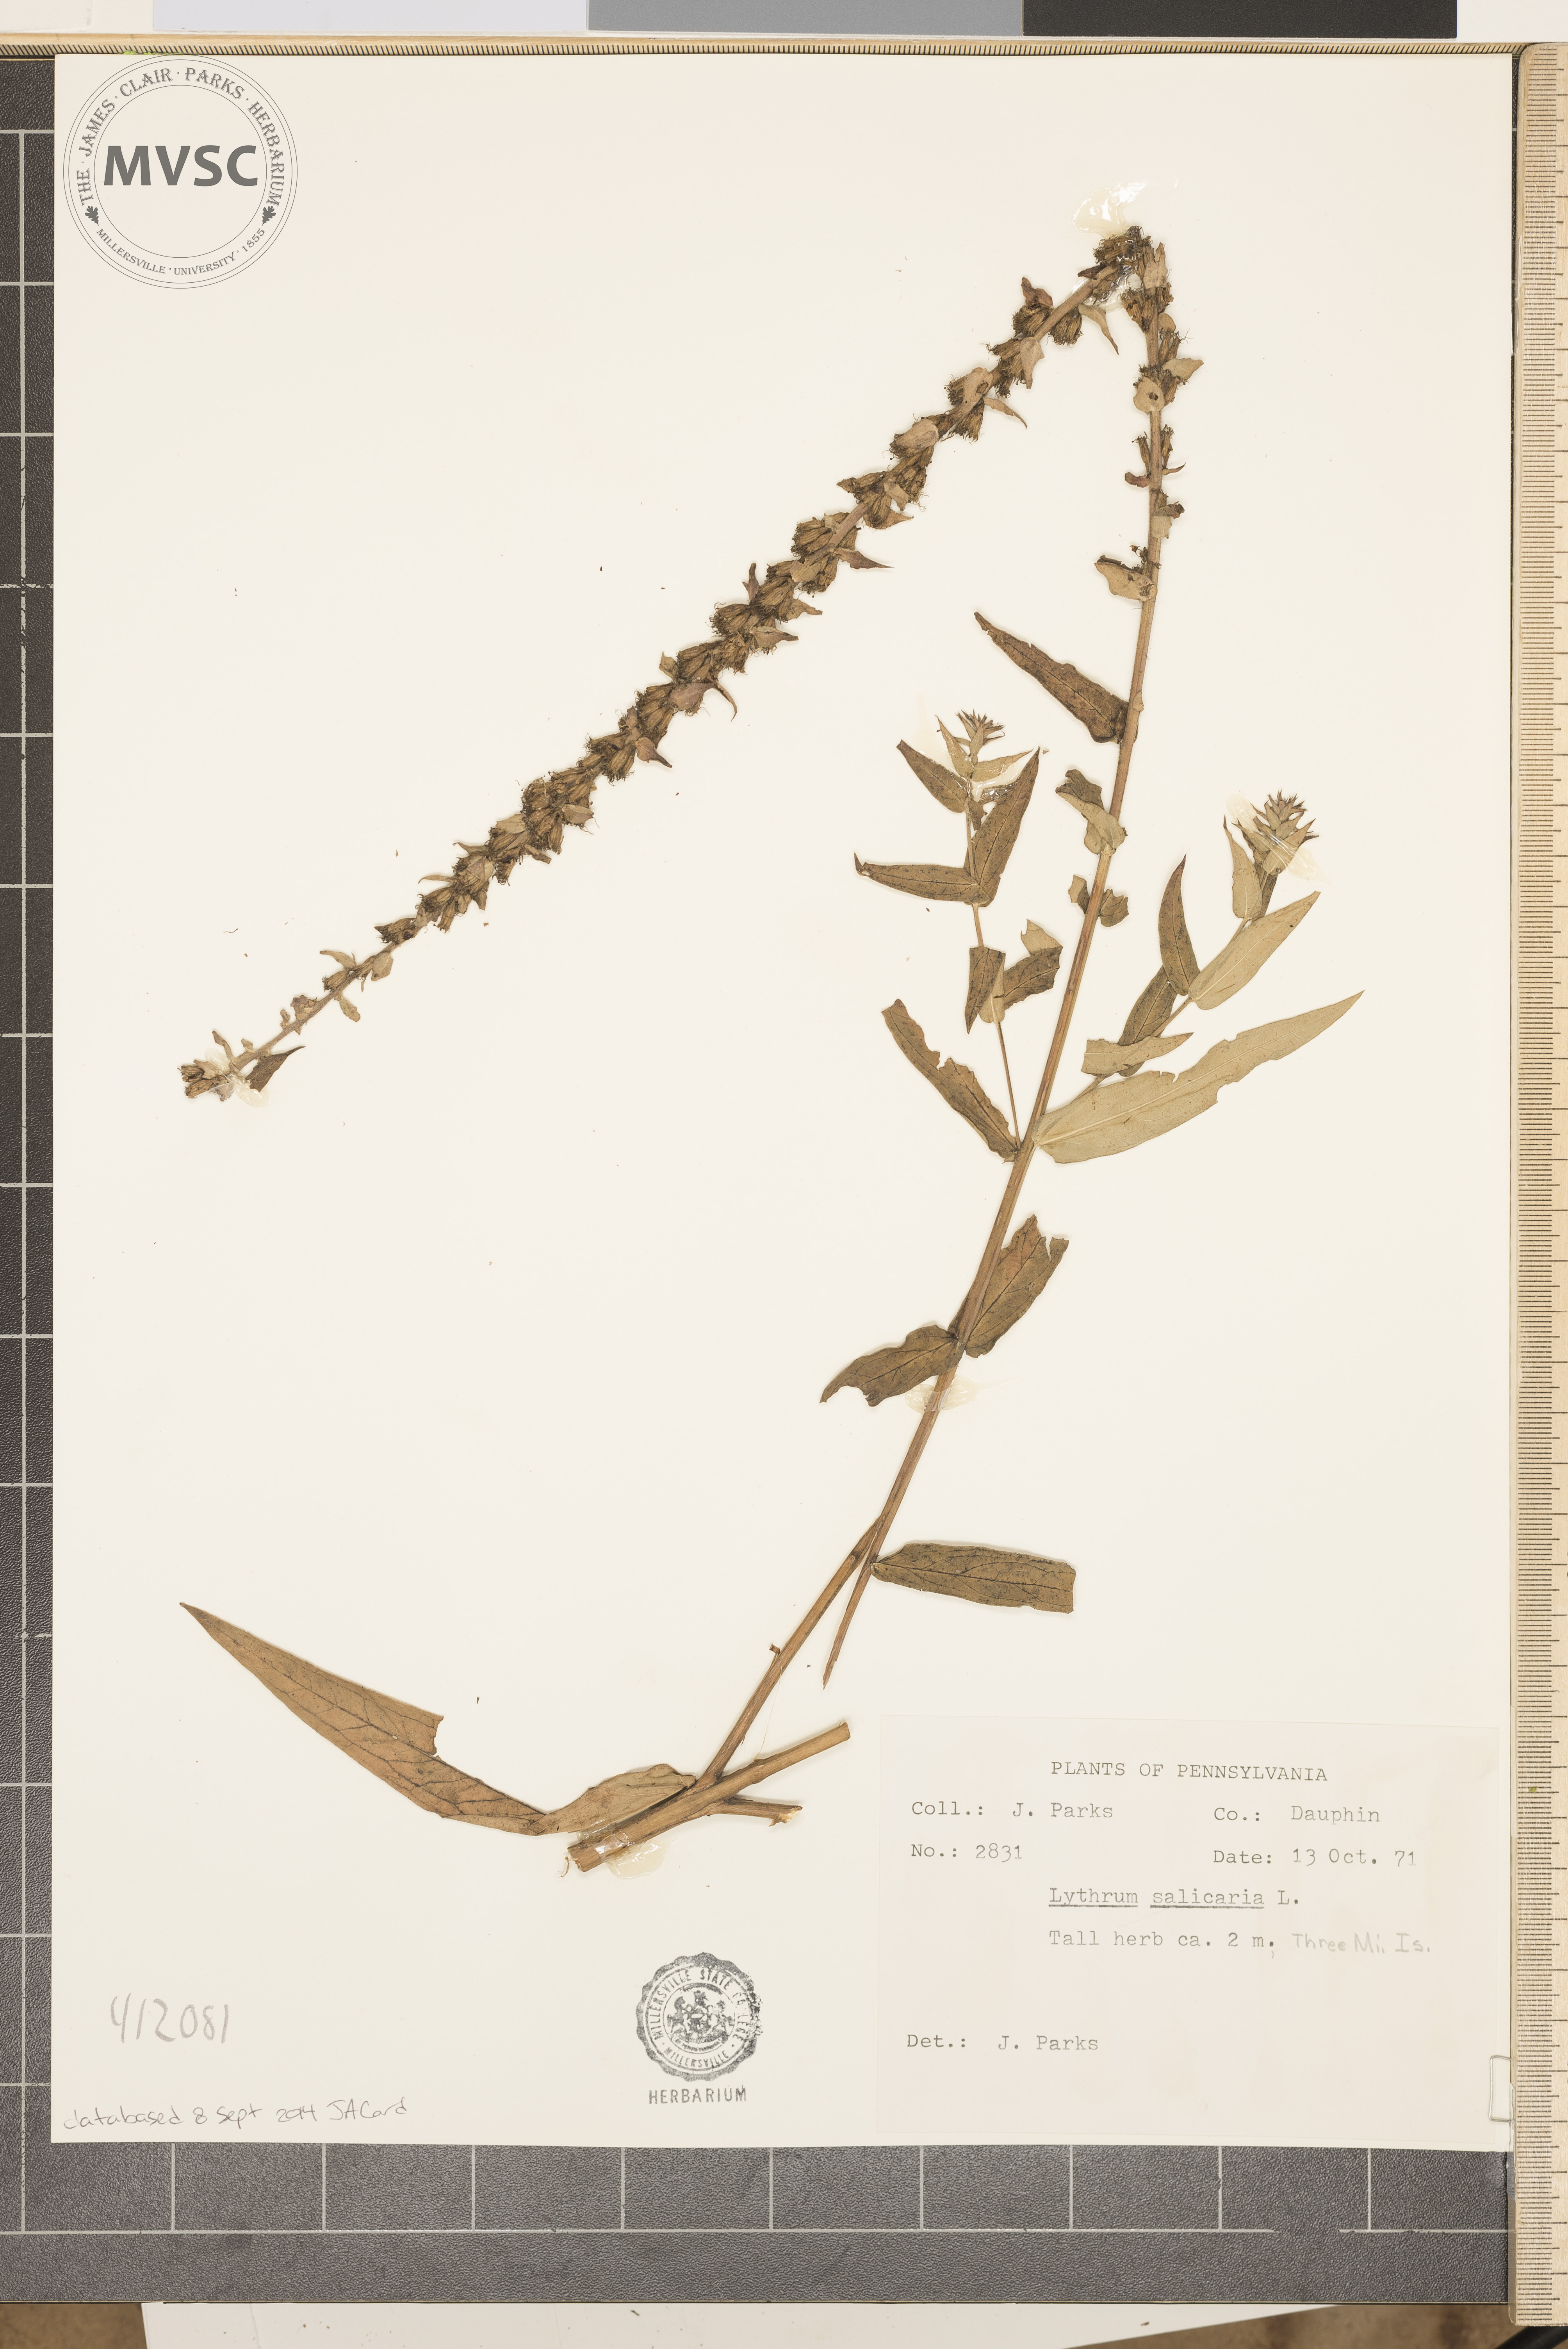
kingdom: Plantae
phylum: Tracheophyta
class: Magnoliopsida
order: Myrtales
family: Lythraceae
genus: Lythrum
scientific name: Lythrum salicaria
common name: Purple loosestrife
